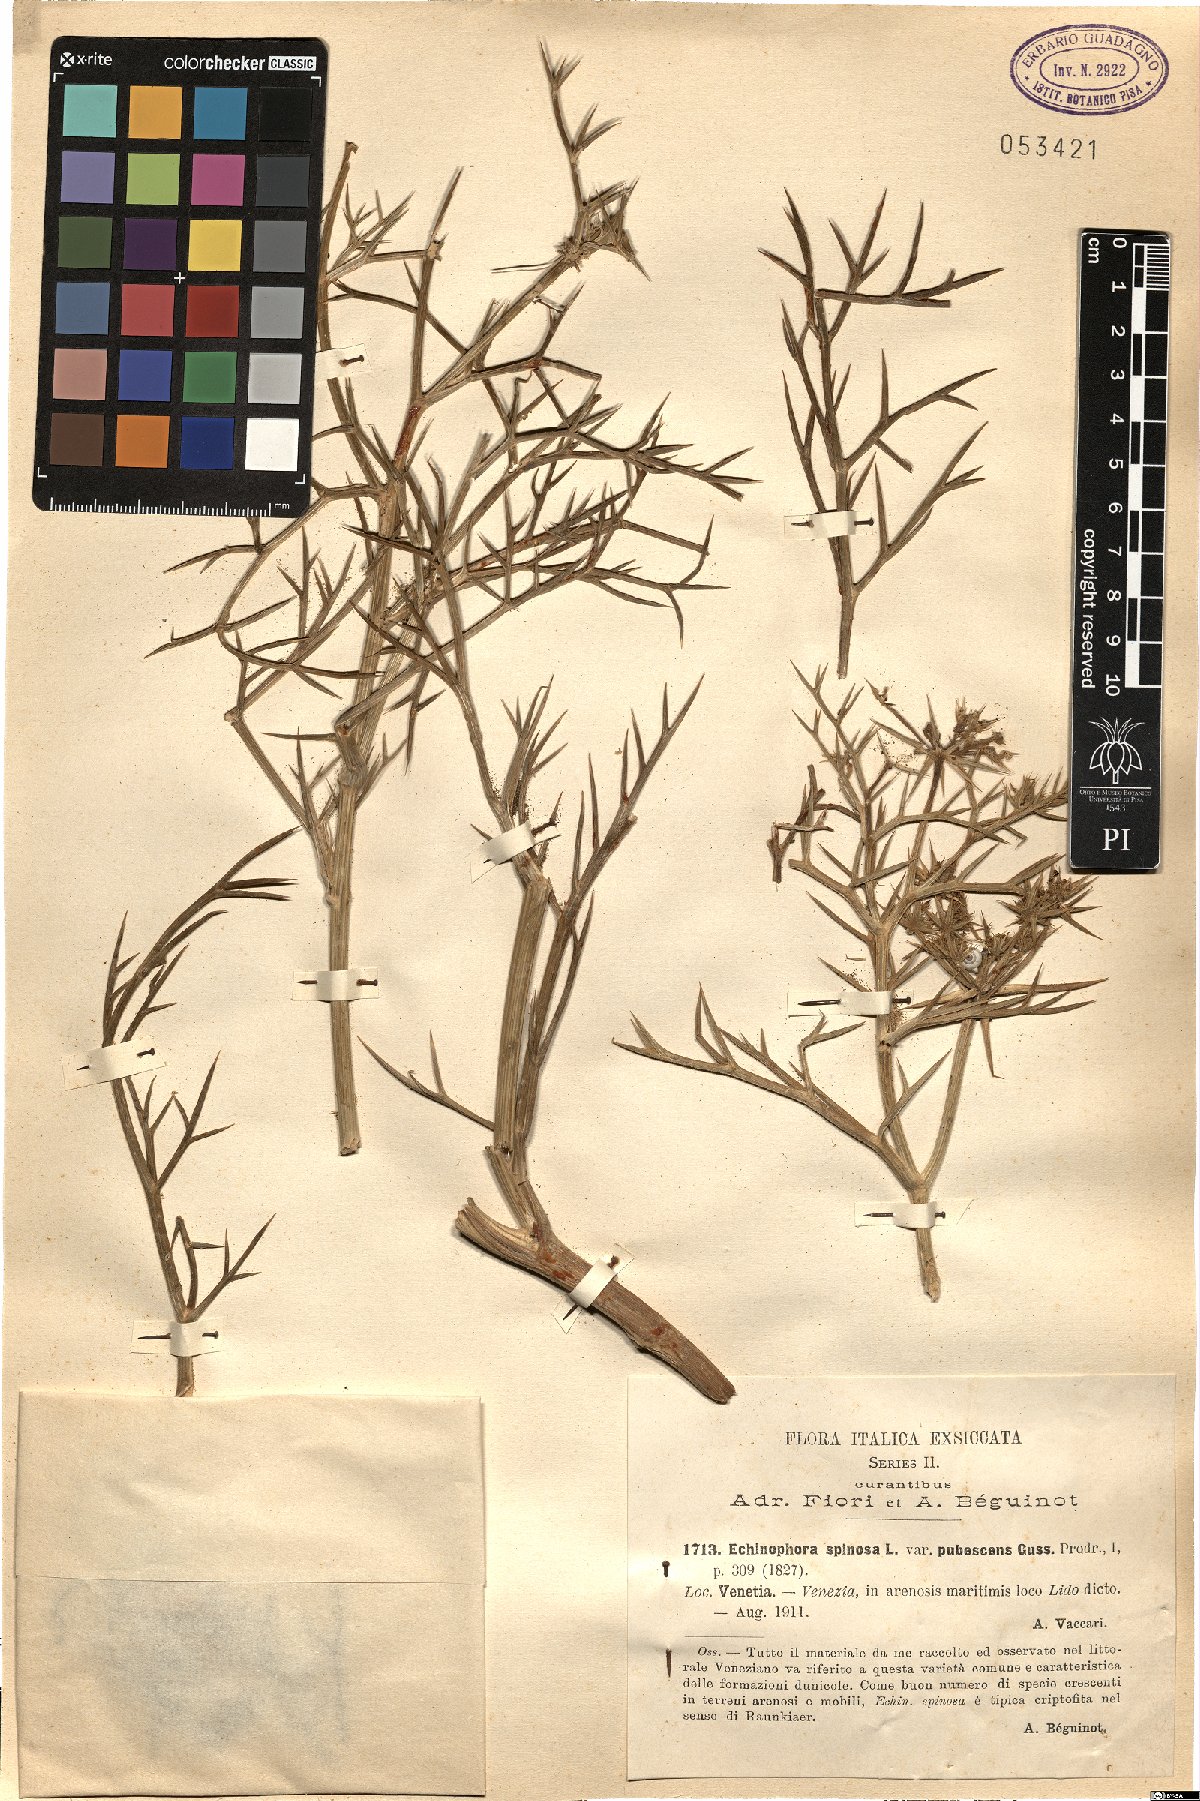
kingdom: Plantae
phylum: Tracheophyta
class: Magnoliopsida
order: Apiales
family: Apiaceae
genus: Echinophora
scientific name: Echinophora spinosa
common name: Prickly samphire
